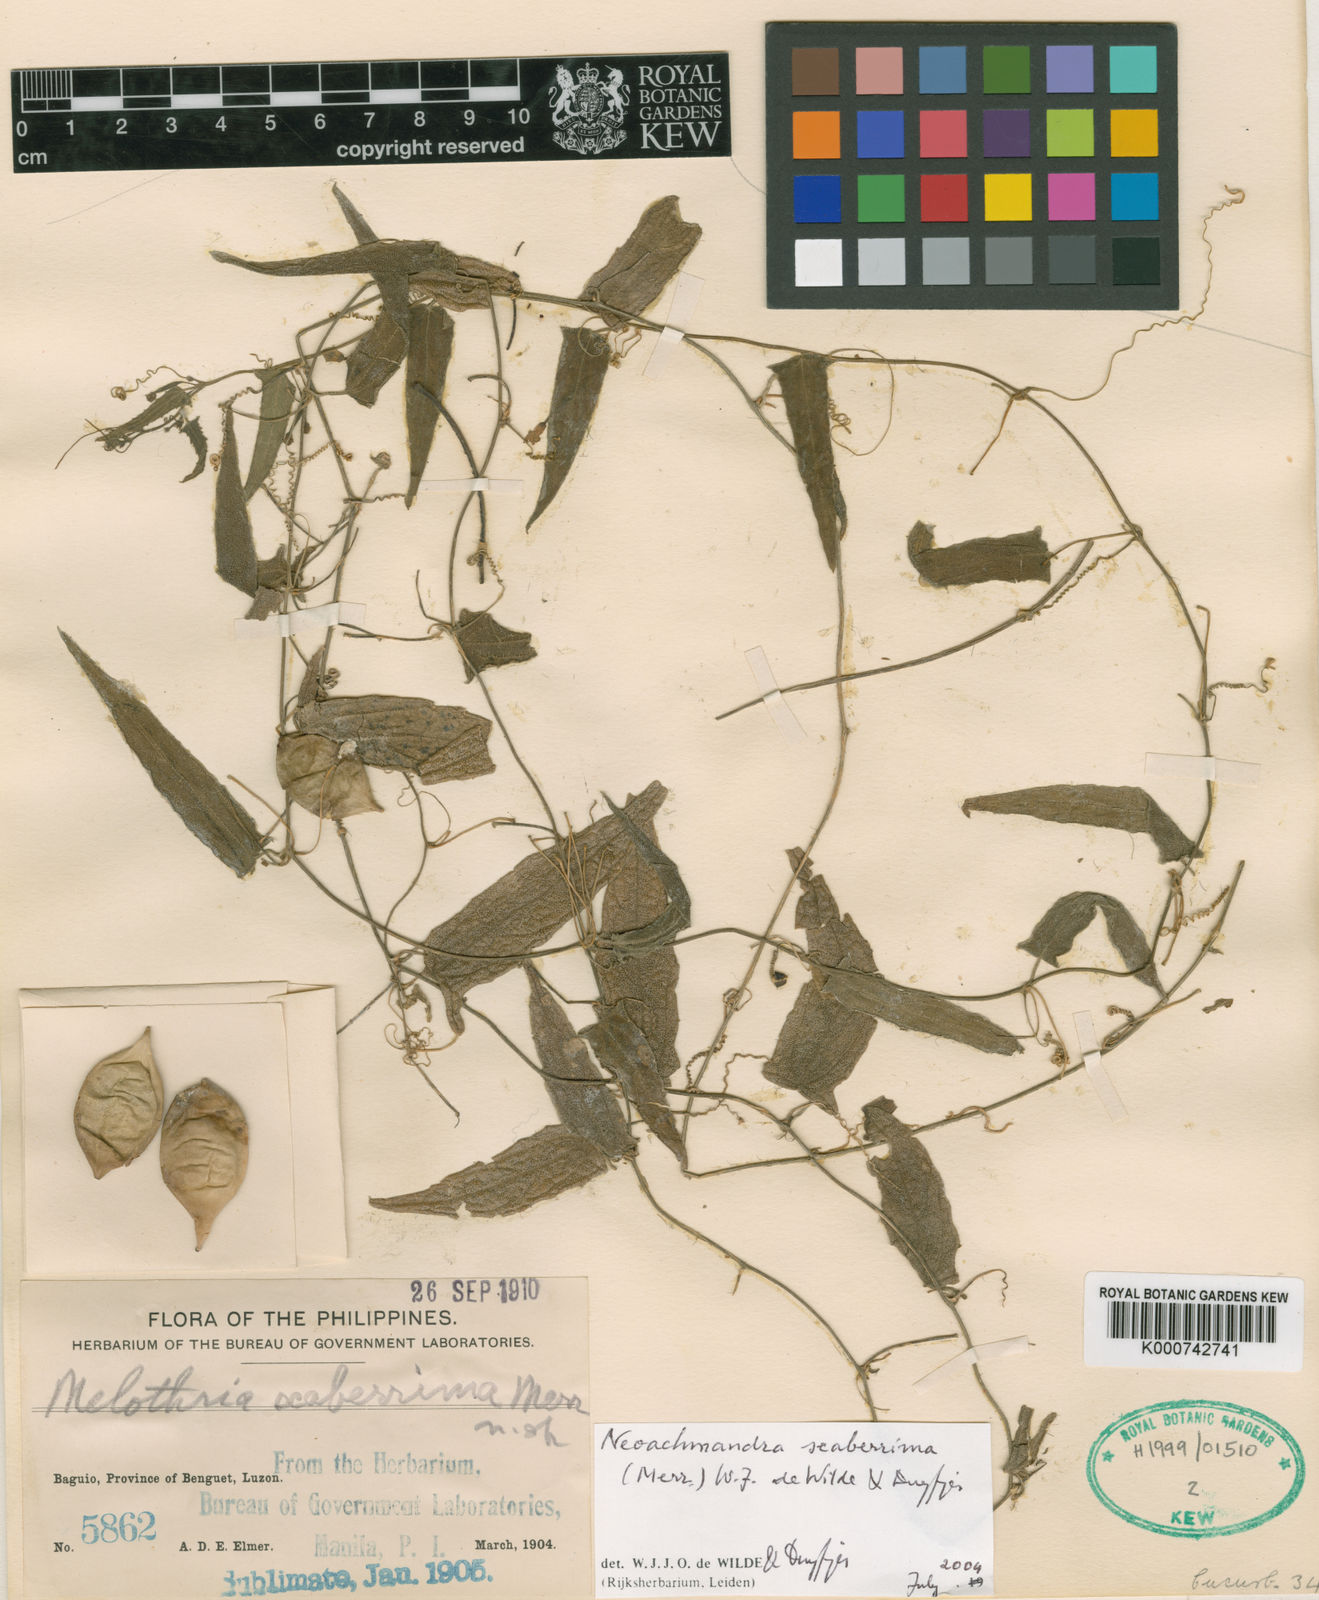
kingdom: Plantae
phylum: Tracheophyta
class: Magnoliopsida
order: Cucurbitales
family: Cucurbitaceae
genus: Zehneria
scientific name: Zehneria scaberrima
